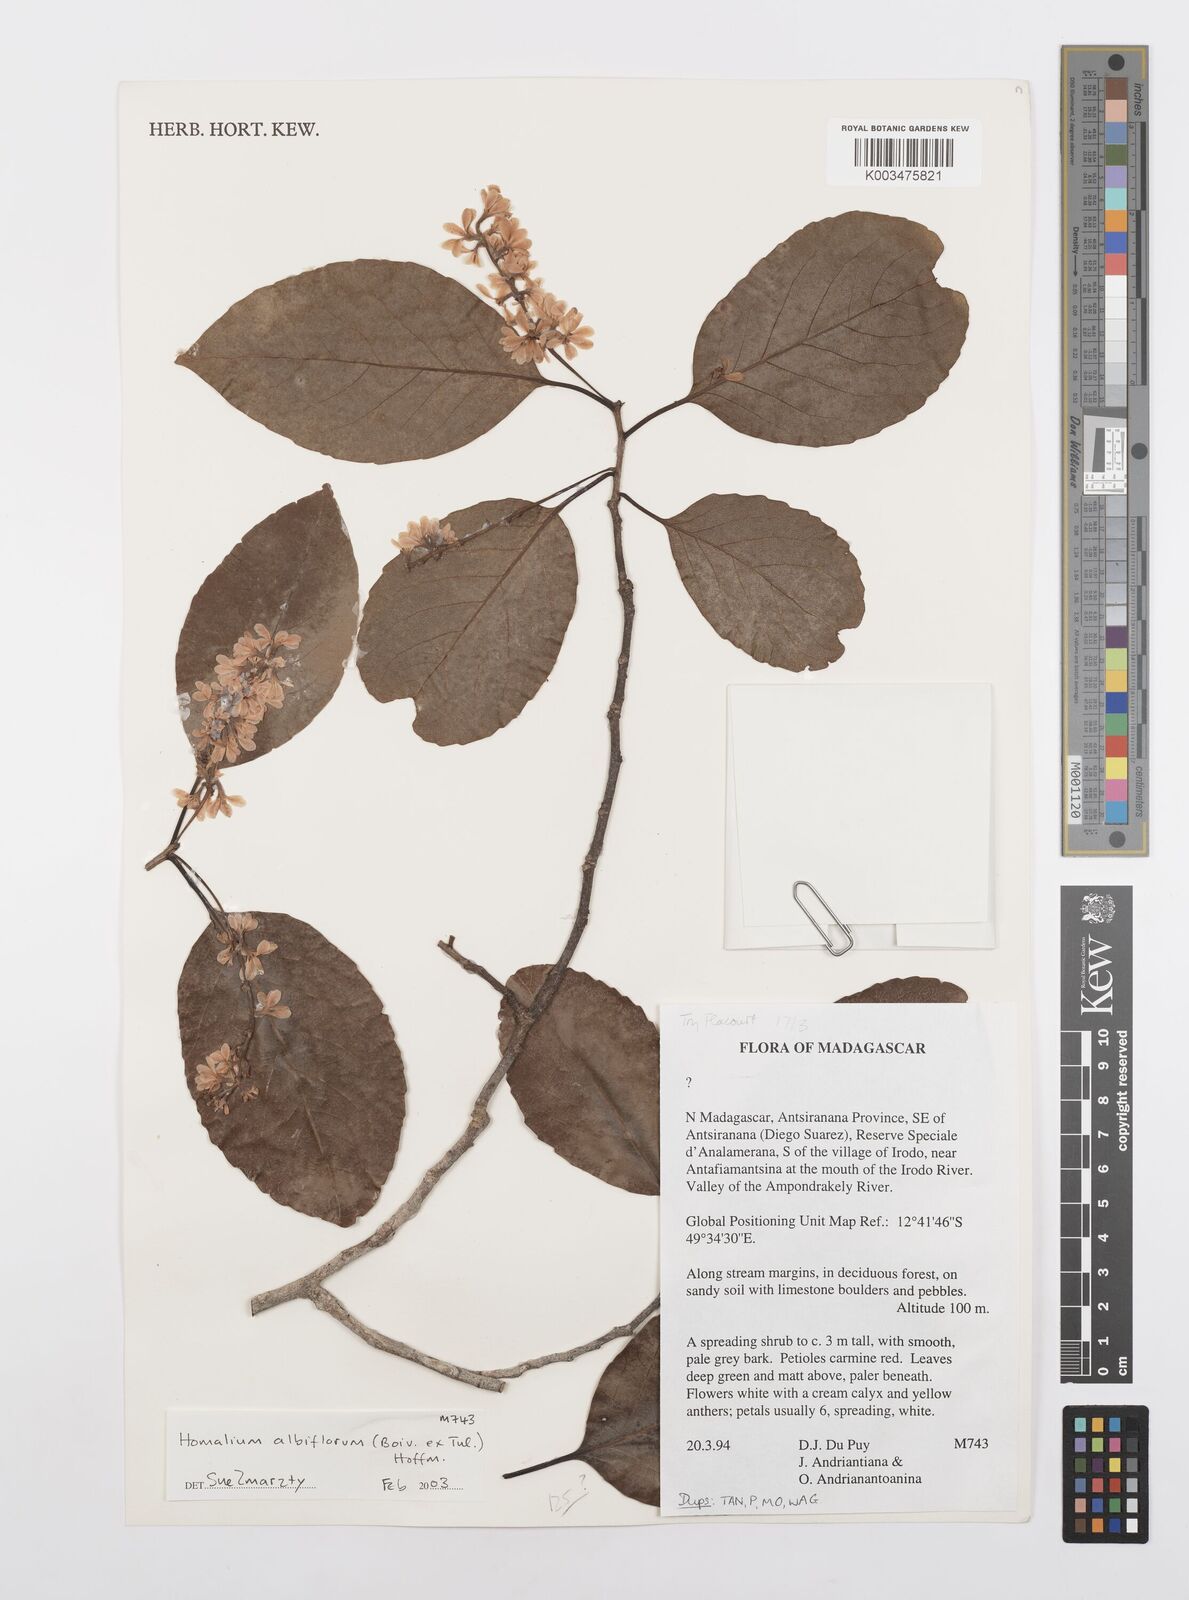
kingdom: Plantae
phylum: Tracheophyta
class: Magnoliopsida
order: Malpighiales
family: Salicaceae
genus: Homalium
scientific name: Homalium albiflorum
